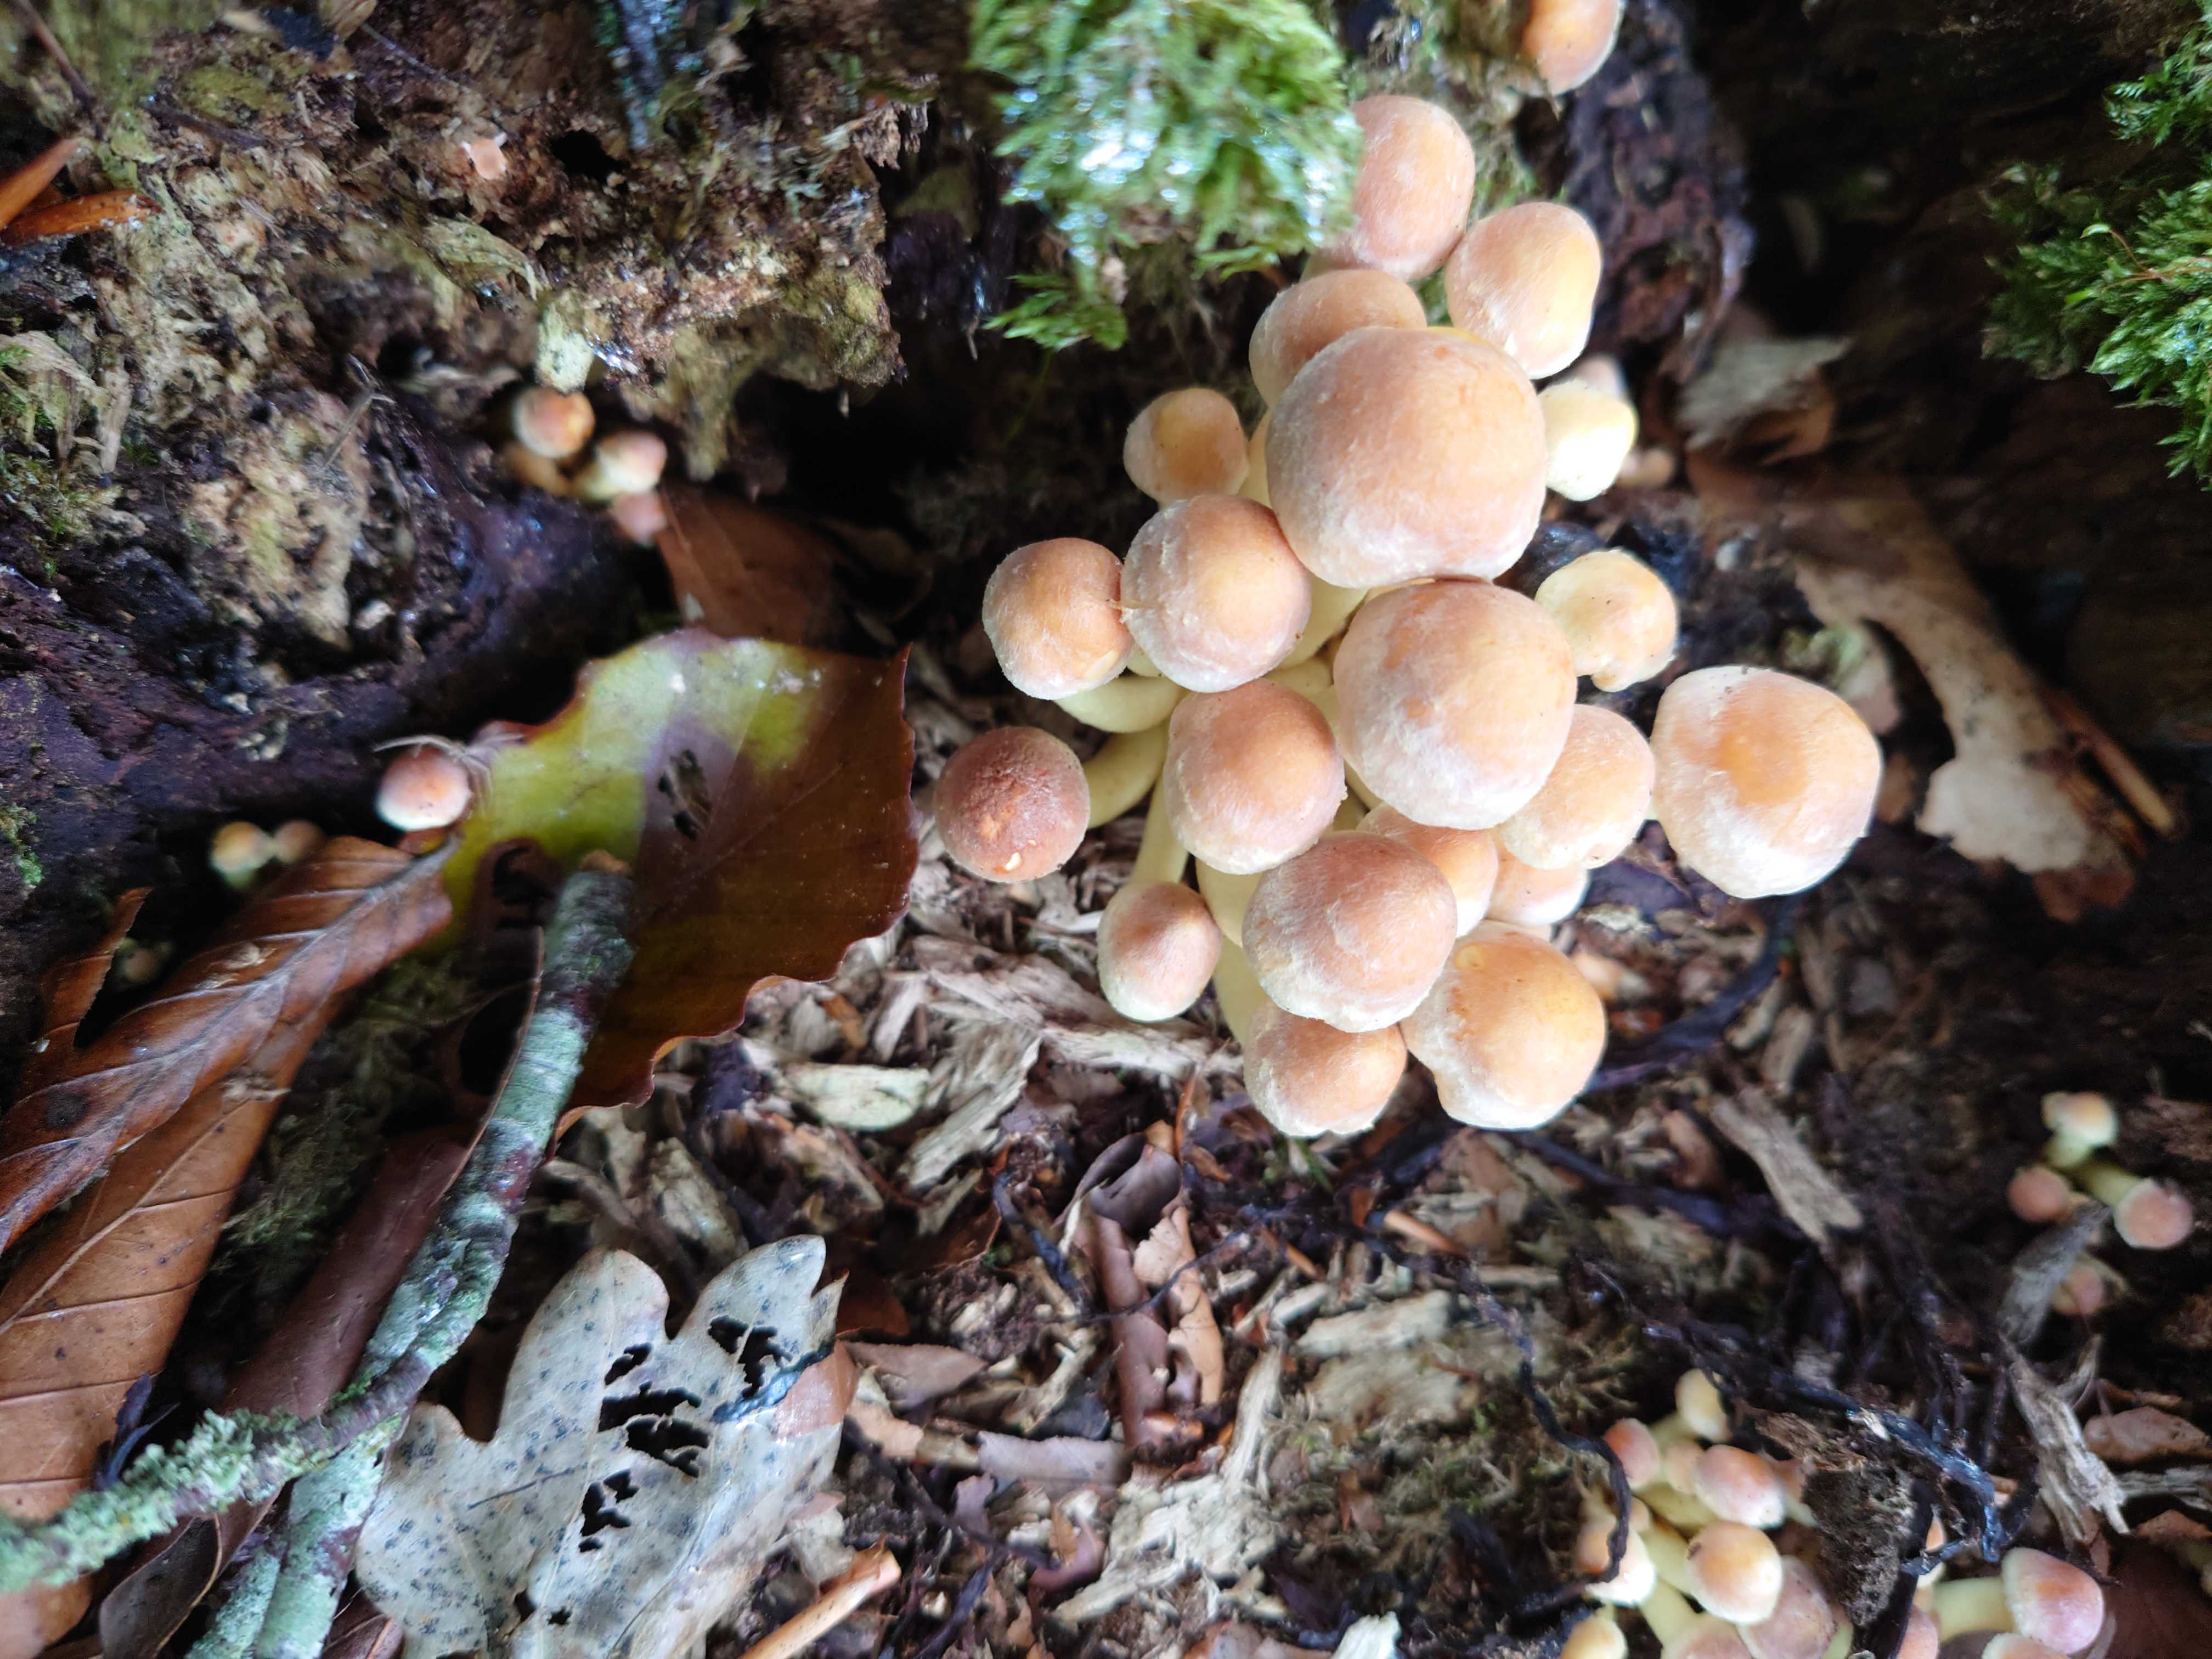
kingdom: Fungi
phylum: Basidiomycota
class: Agaricomycetes
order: Agaricales
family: Strophariaceae
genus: Hypholoma
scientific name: Hypholoma fasciculare
